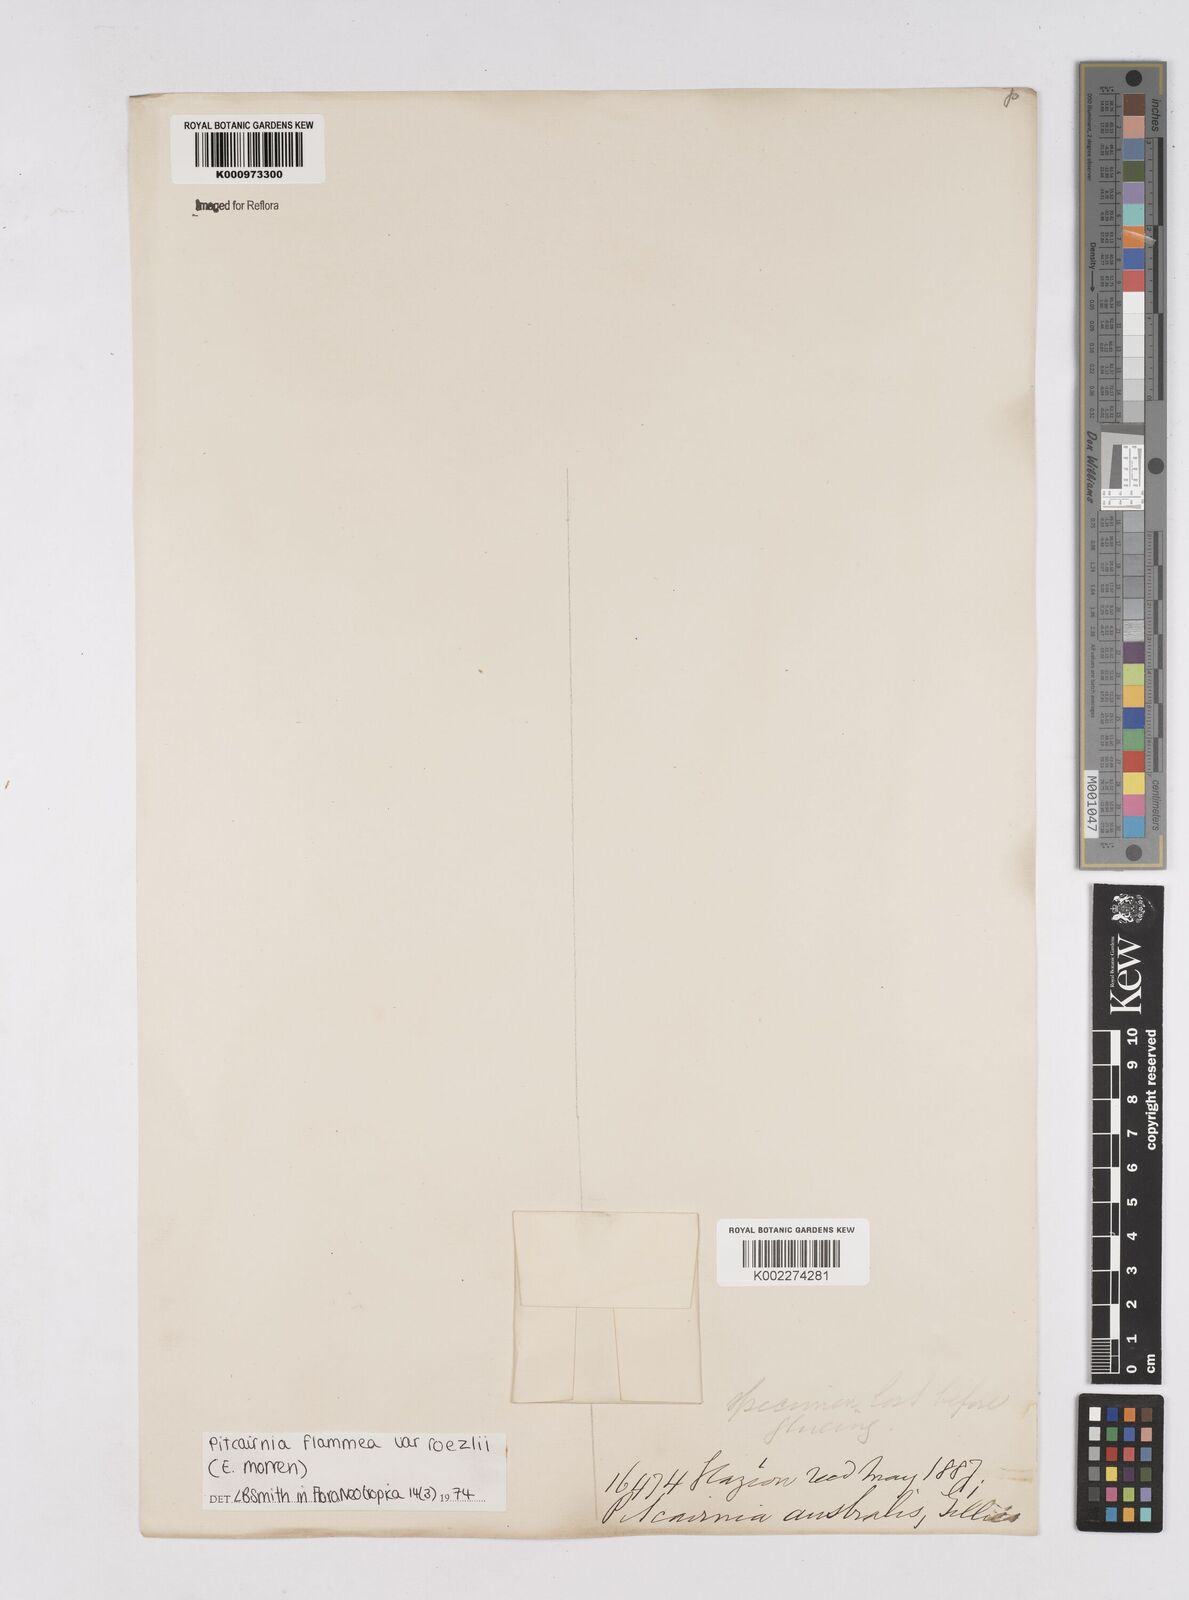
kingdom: Plantae
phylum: Tracheophyta
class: Liliopsida
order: Poales
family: Bromeliaceae
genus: Pitcairnia
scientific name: Pitcairnia flammea
